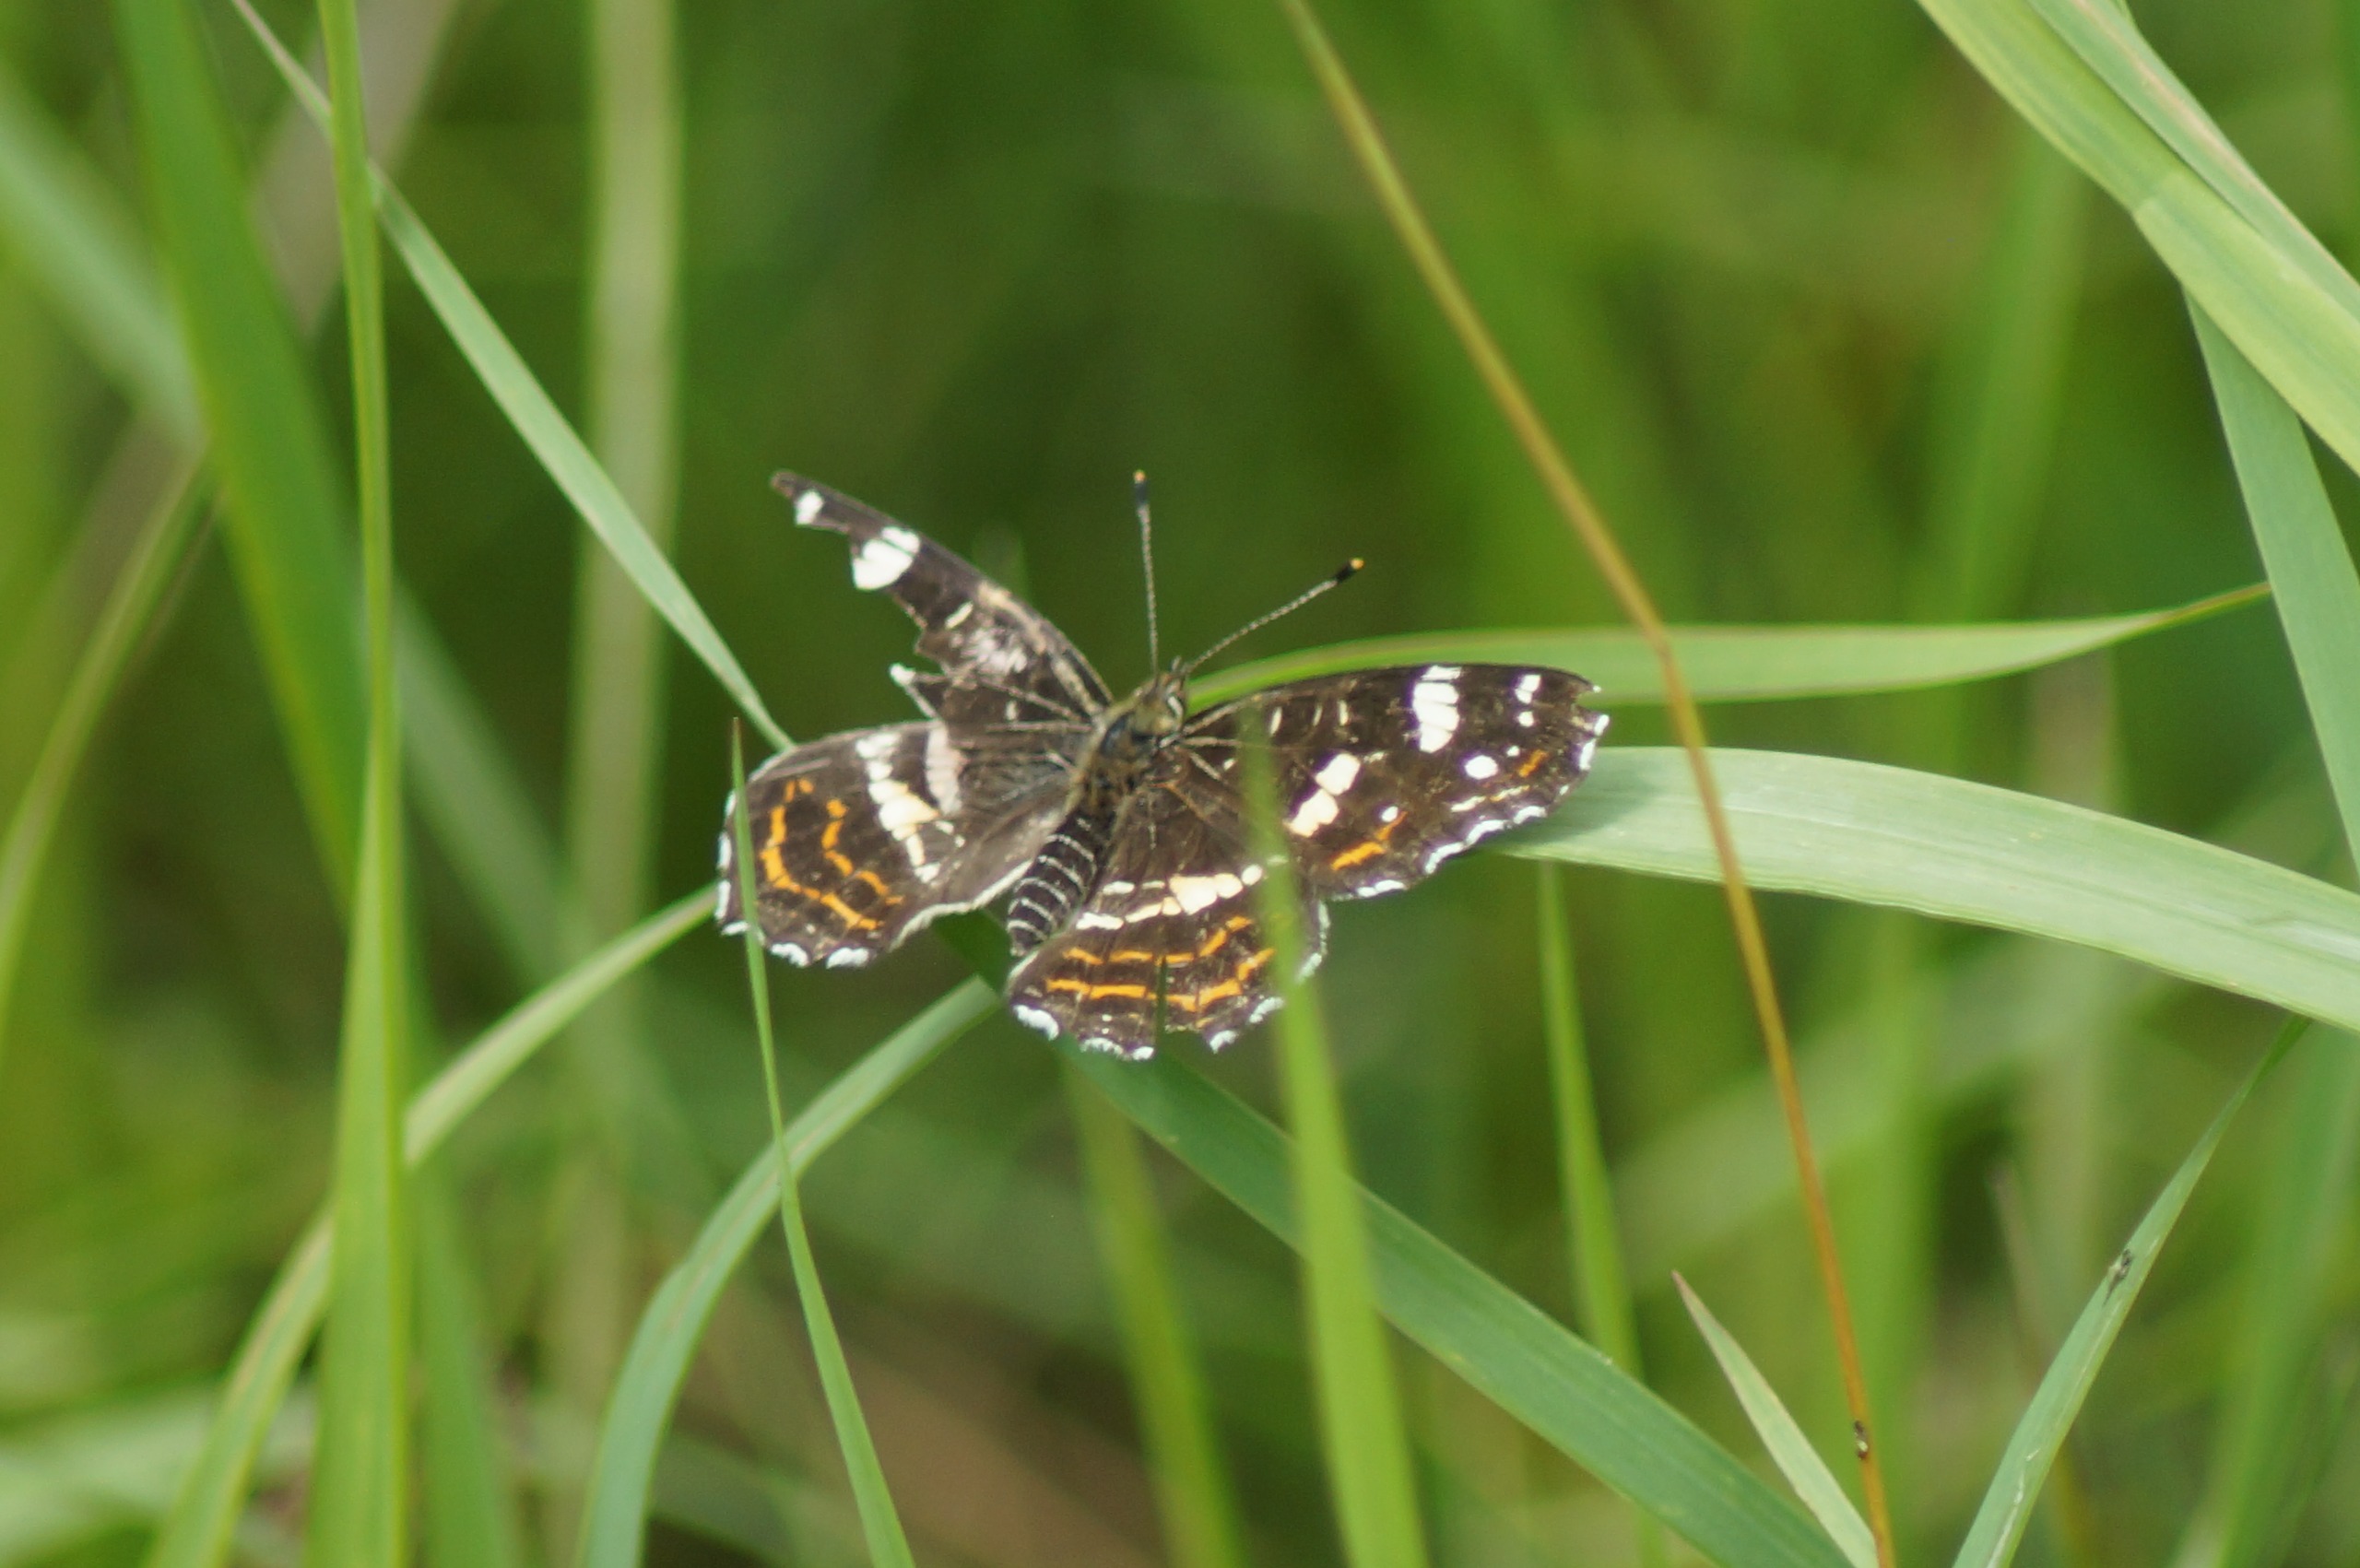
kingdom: Animalia
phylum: Arthropoda
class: Insecta
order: Lepidoptera
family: Nymphalidae
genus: Araschnia
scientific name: Araschnia levana
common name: Nældesommerfugl
